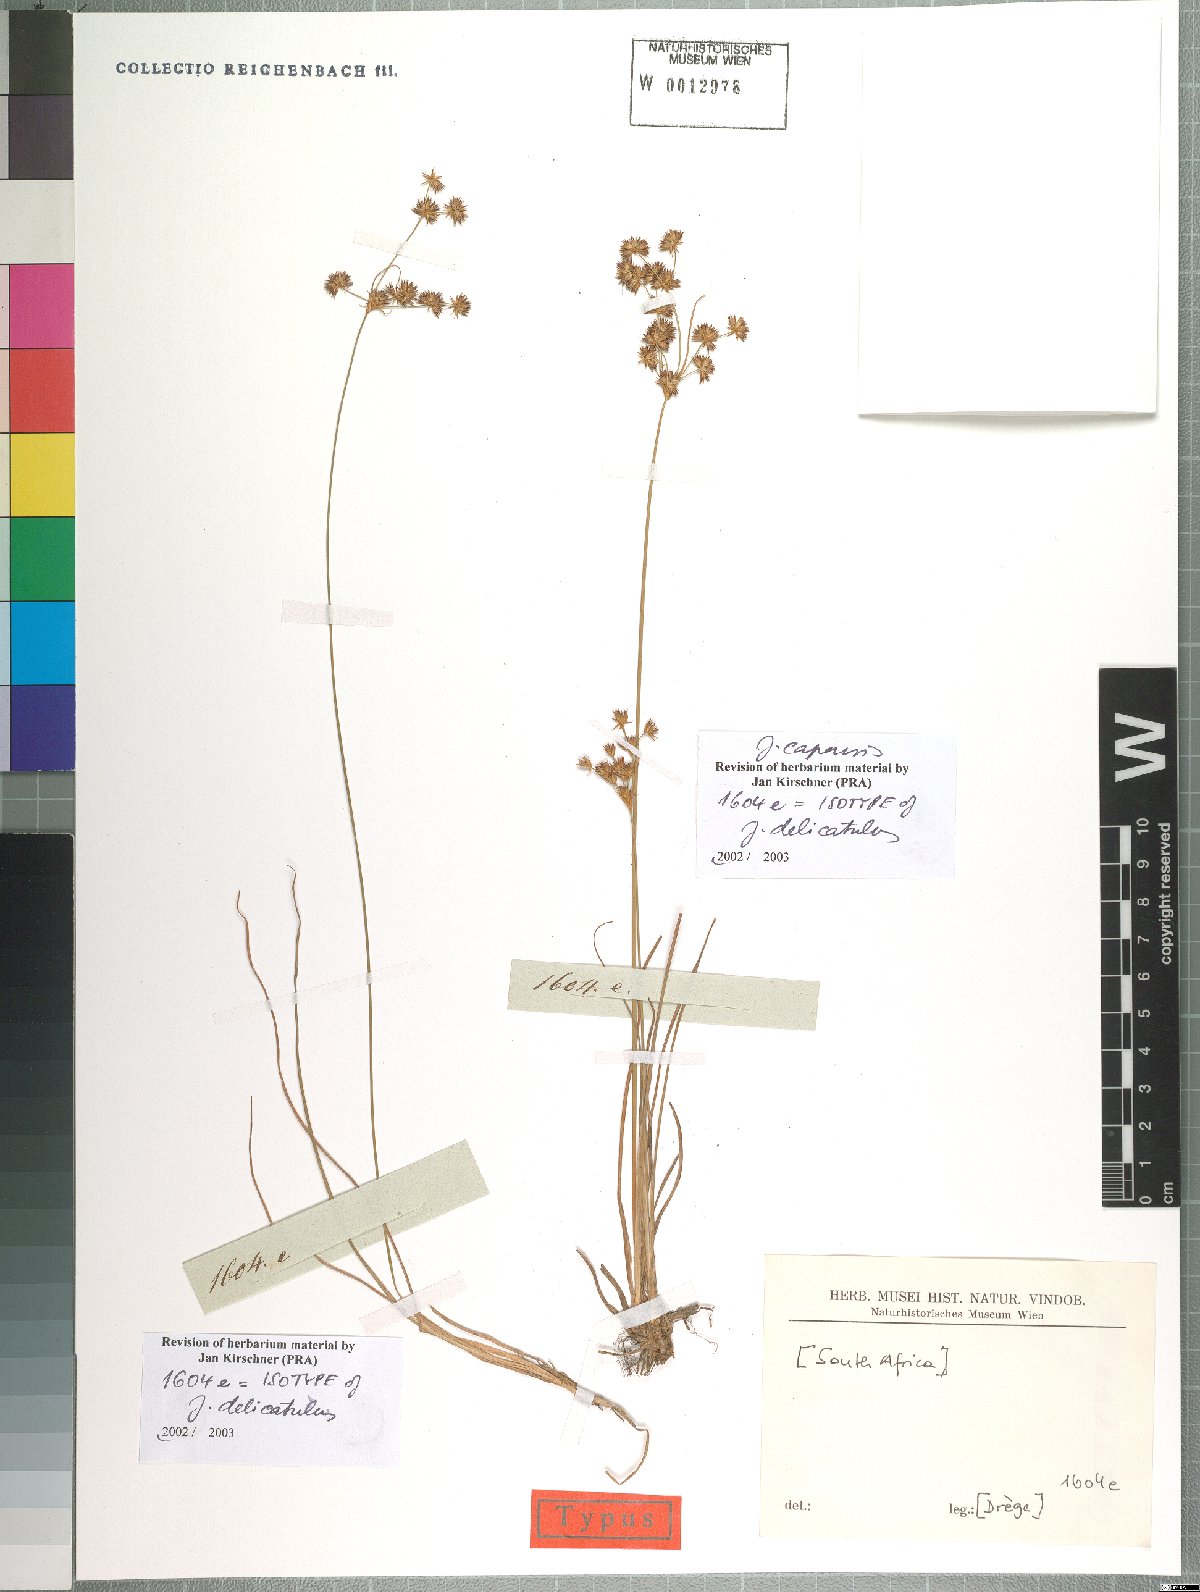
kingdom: Plantae
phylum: Tracheophyta
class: Liliopsida
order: Poales
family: Juncaceae
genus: Juncus
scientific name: Juncus capensis
